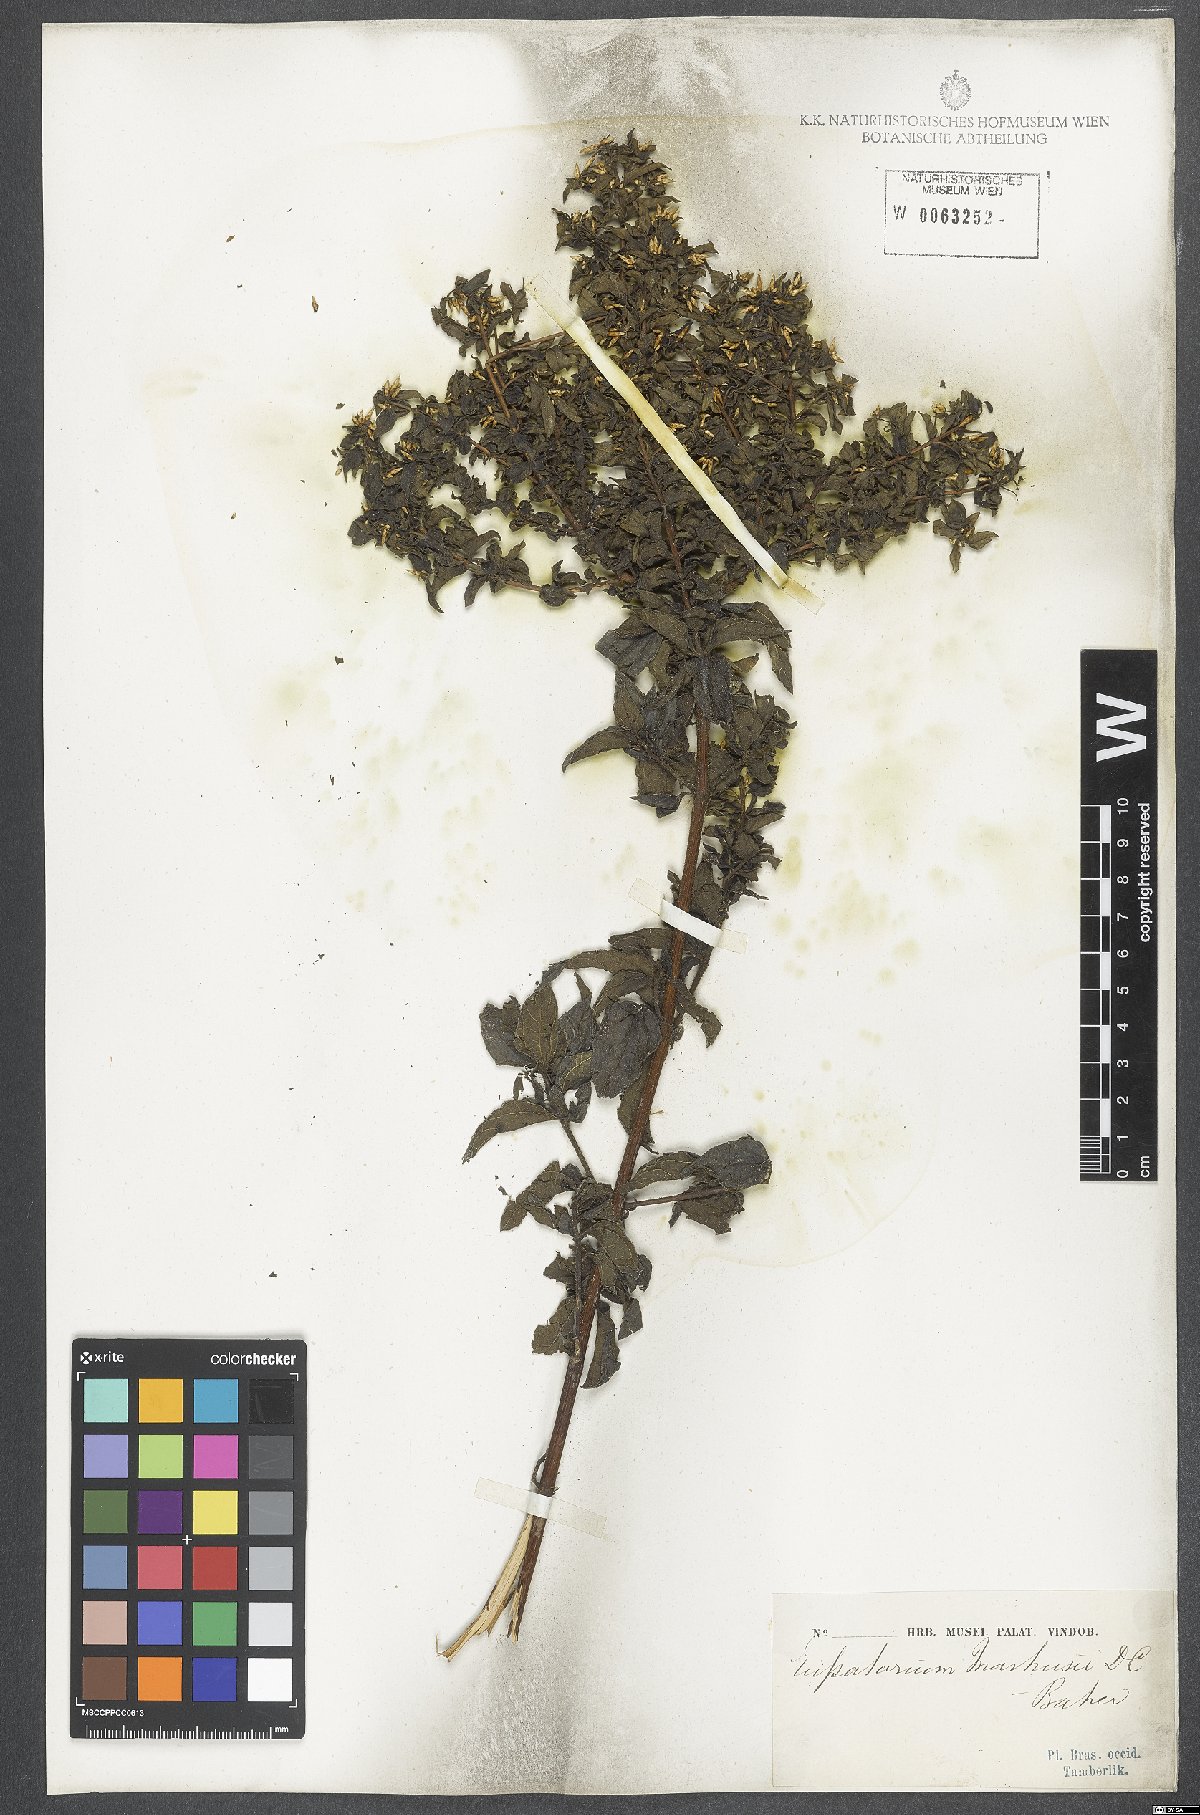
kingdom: Plantae
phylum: Tracheophyta
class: Magnoliopsida
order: Asterales
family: Asteraceae
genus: Chromolaena
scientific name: Chromolaena squalida
